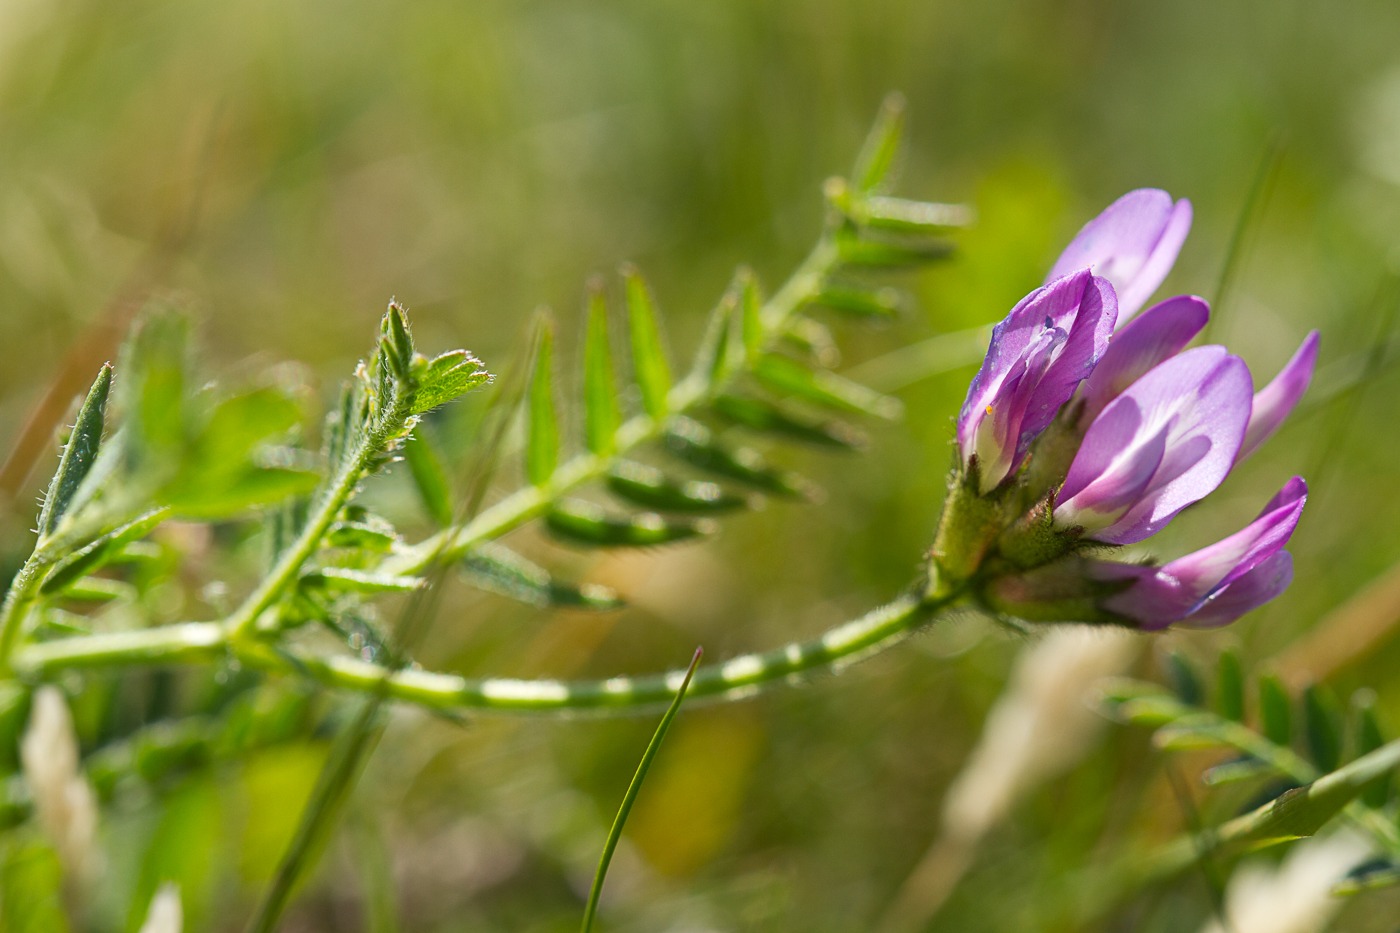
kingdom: Plantae
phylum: Tracheophyta
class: Magnoliopsida
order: Fabales
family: Fabaceae
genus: Astragalus
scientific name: Astragalus danicus
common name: Dansk astragel
